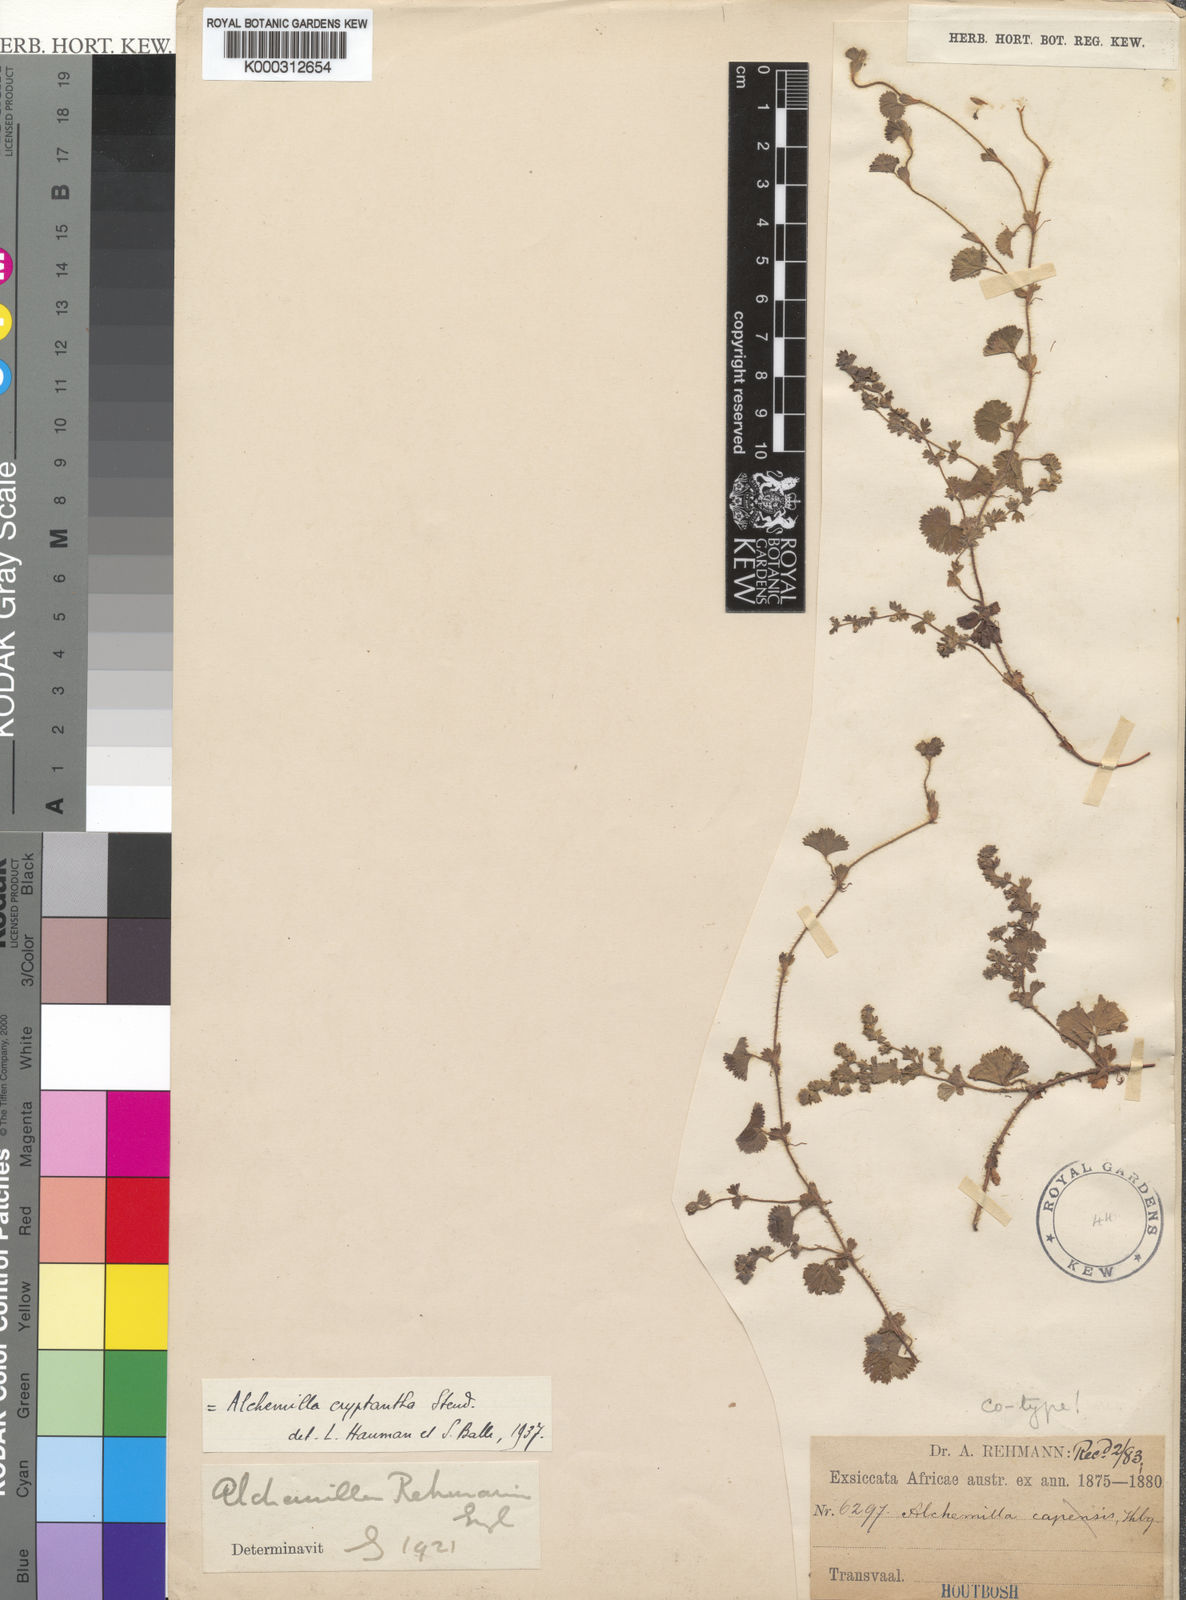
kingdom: Plantae
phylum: Tracheophyta
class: Magnoliopsida
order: Rosales
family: Rosaceae
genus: Alchemilla
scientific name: Alchemilla rehmannii
